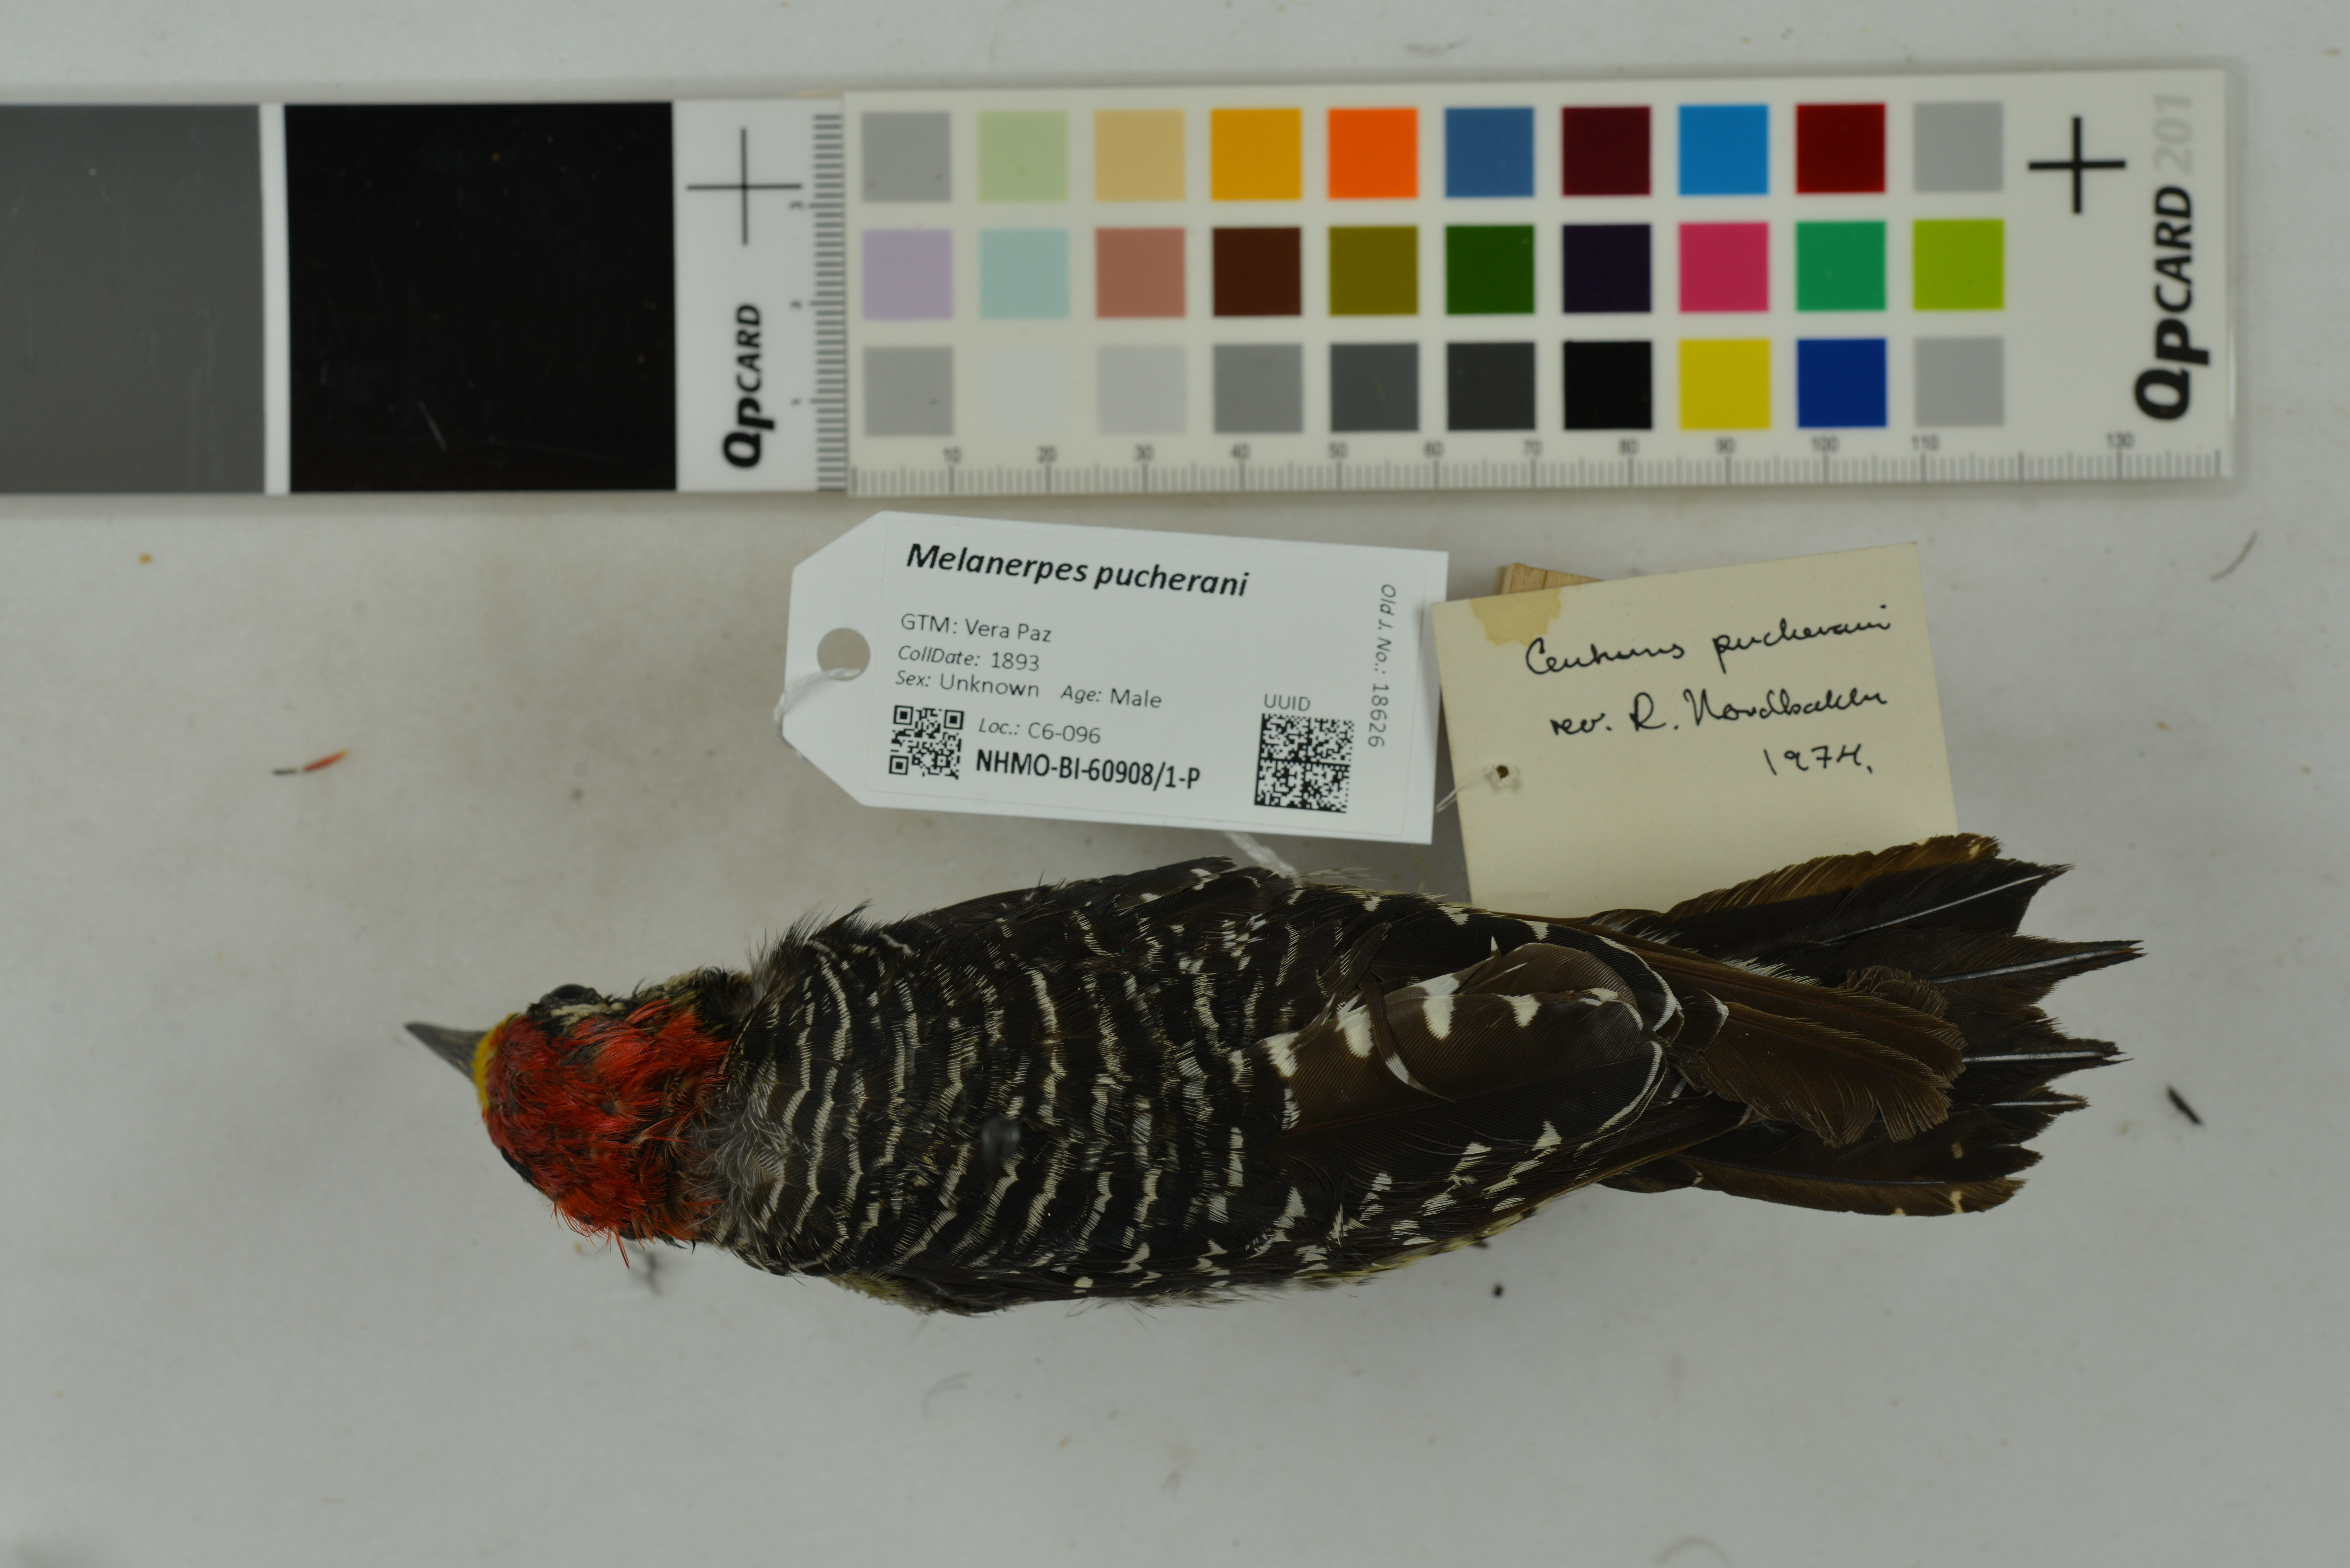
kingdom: Animalia
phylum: Chordata
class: Aves
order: Piciformes
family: Picidae
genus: Melanerpes
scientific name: Melanerpes pucherani
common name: Black-cheeked woodpecker
